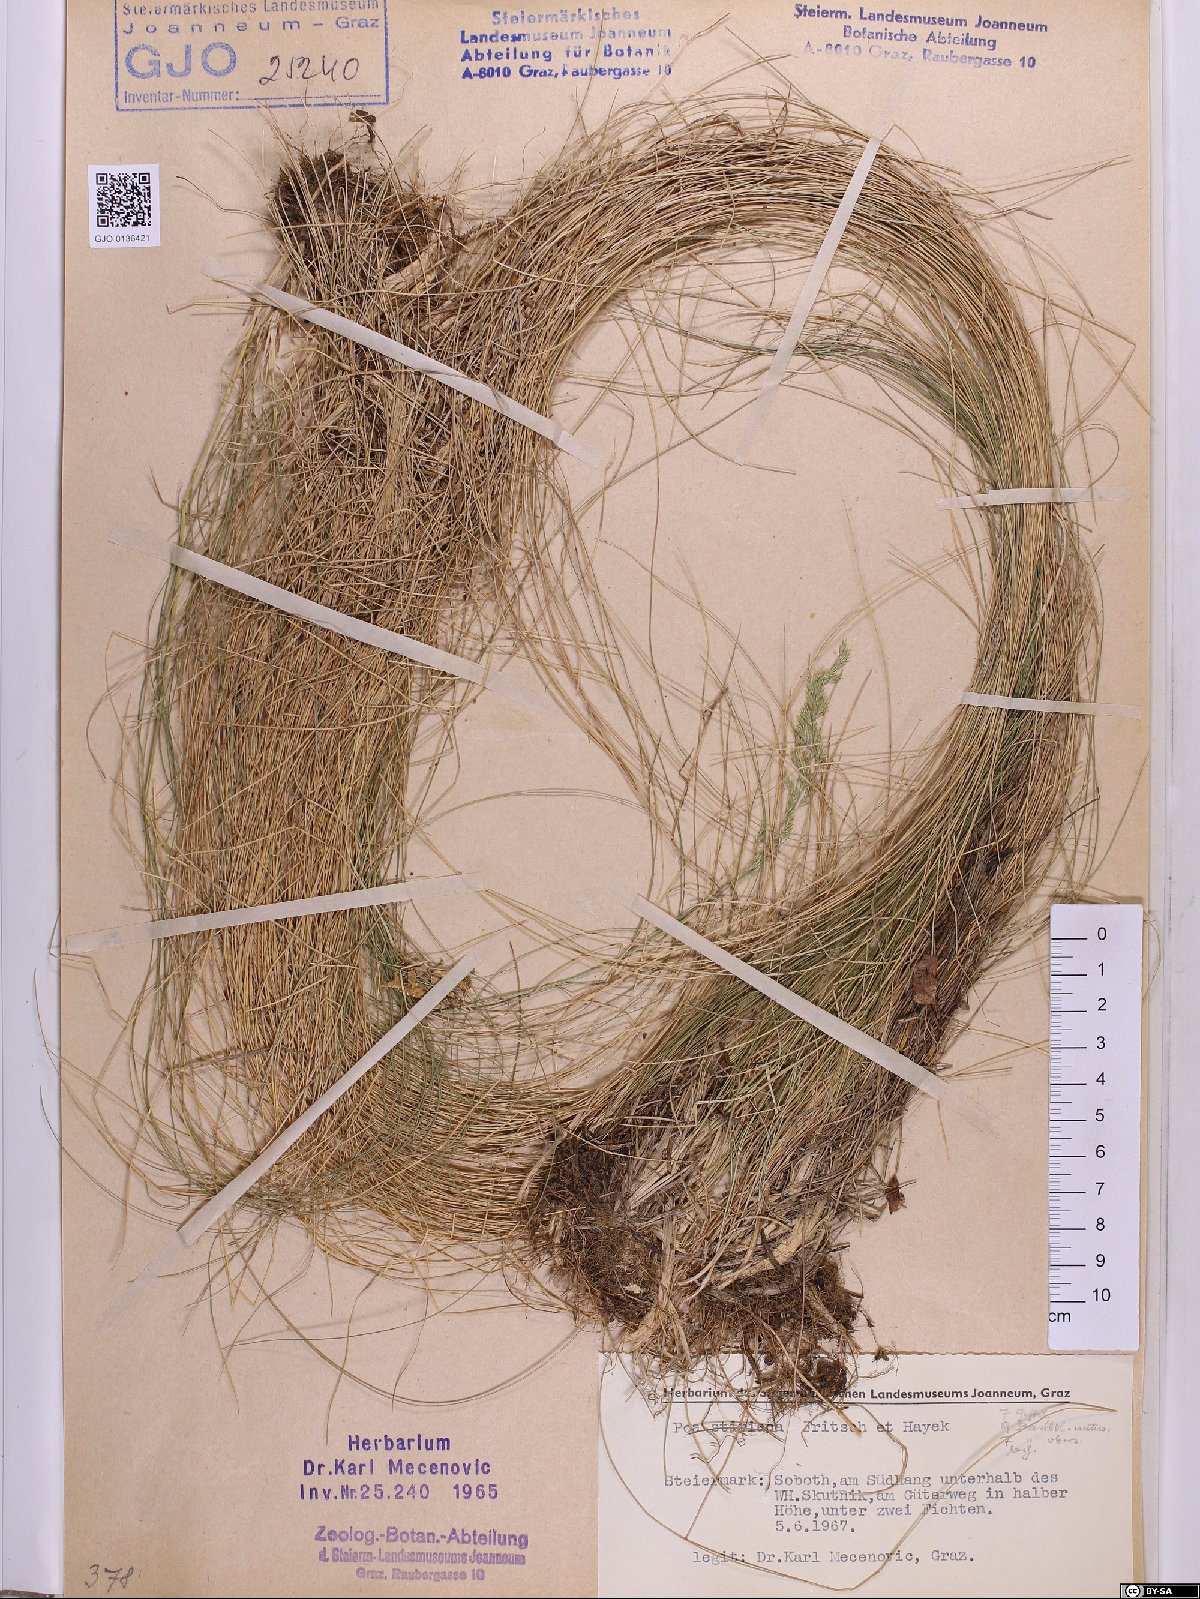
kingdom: Plantae
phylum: Tracheophyta
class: Liliopsida
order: Poales
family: Poaceae
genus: Poa
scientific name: Poa stiriaca
